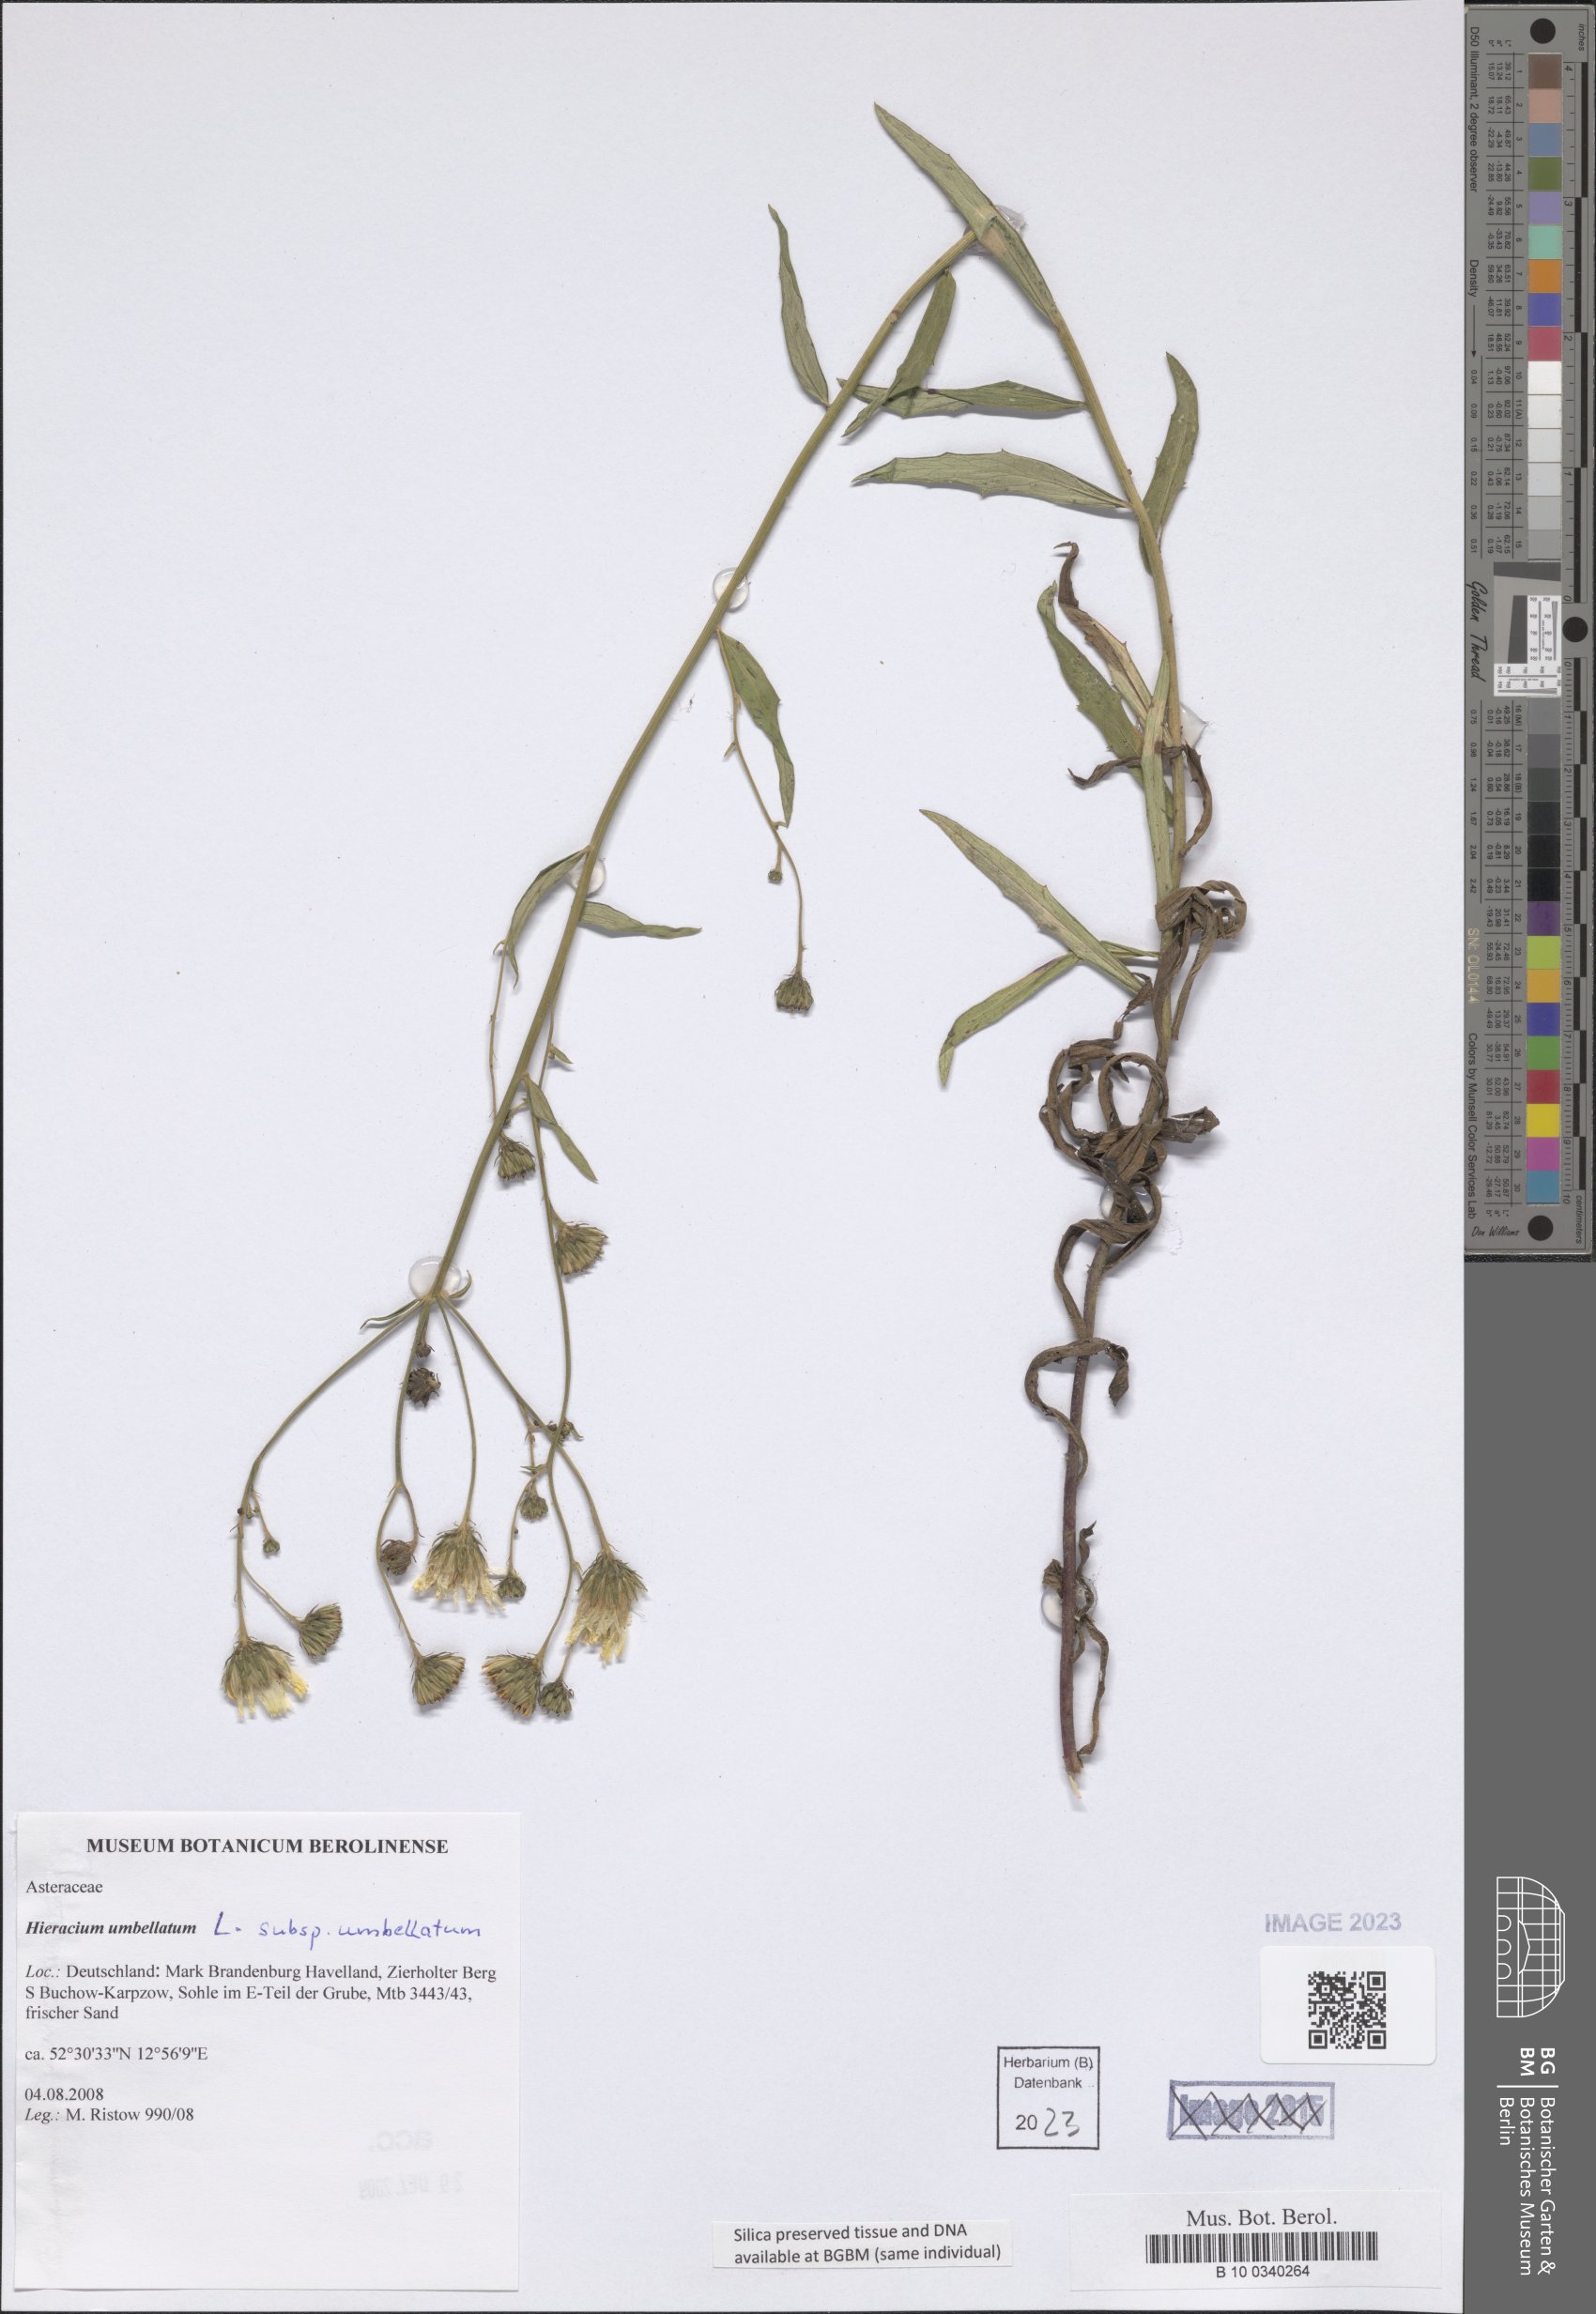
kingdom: Plantae
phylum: Tracheophyta
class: Magnoliopsida
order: Asterales
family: Asteraceae
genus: Hieracium
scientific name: Hieracium umbellatum
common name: Northern hawkweed
